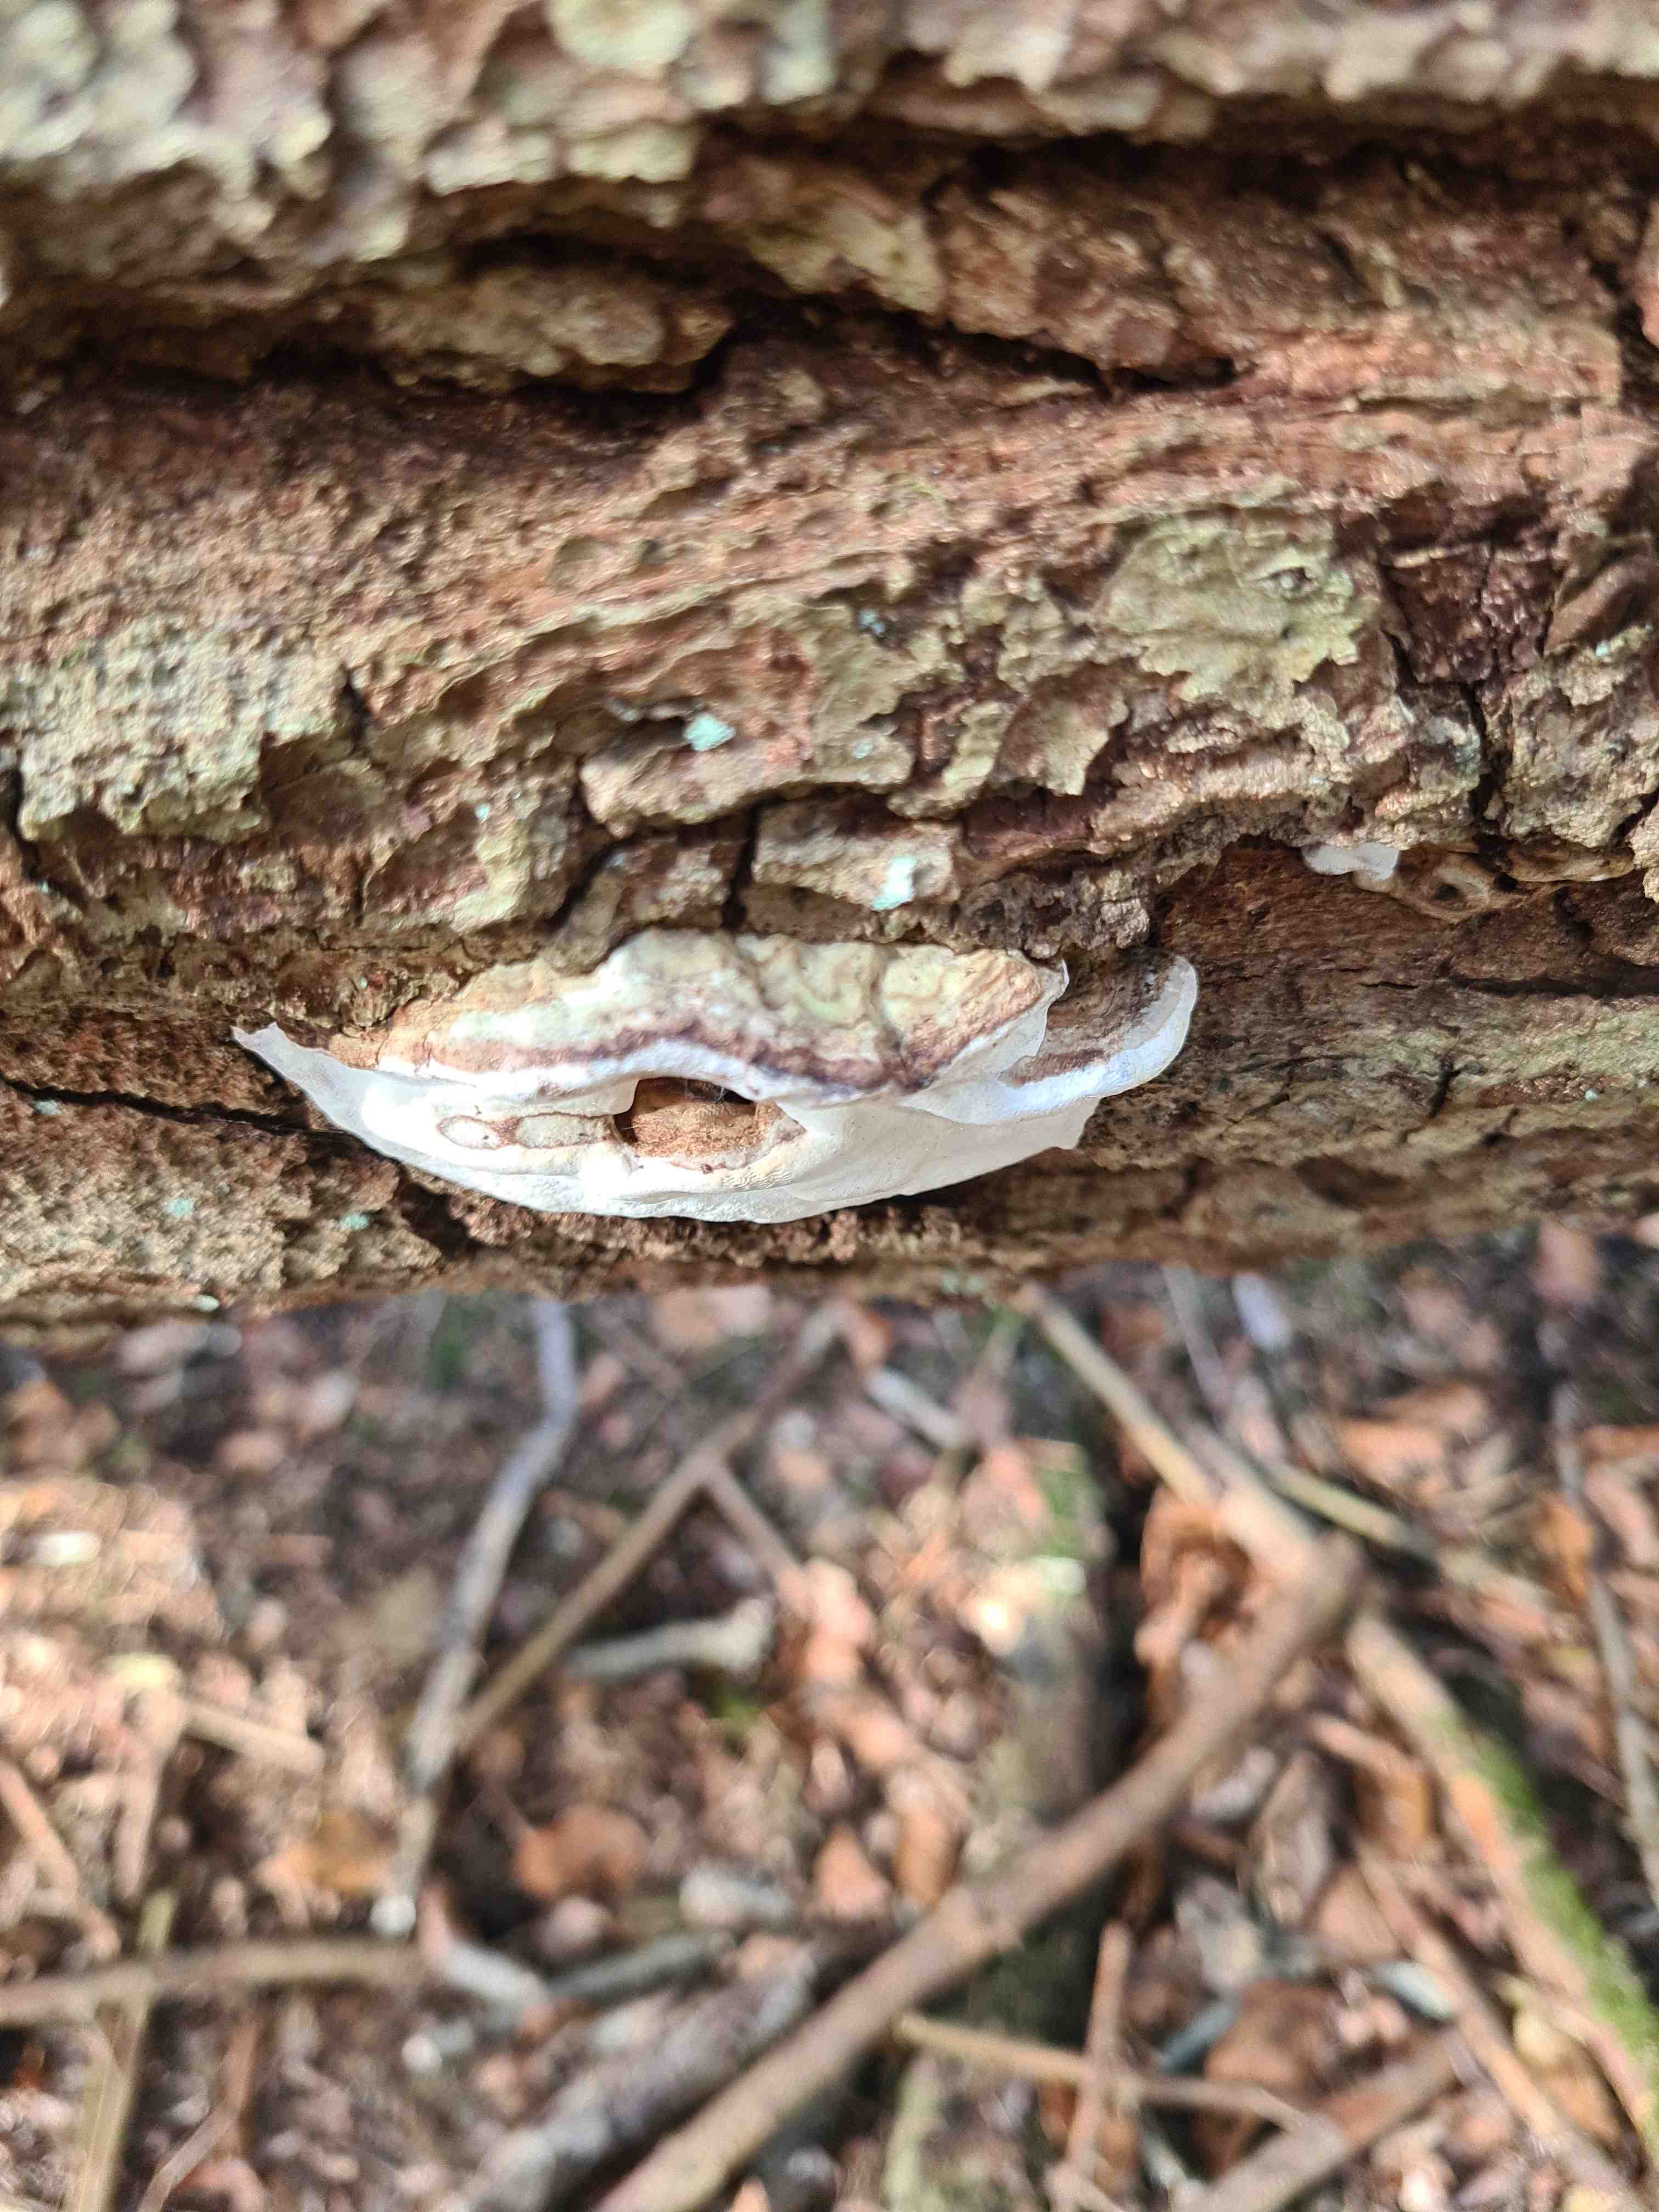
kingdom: Fungi
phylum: Basidiomycota
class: Agaricomycetes
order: Polyporales
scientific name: Polyporales
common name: poresvampordenen
